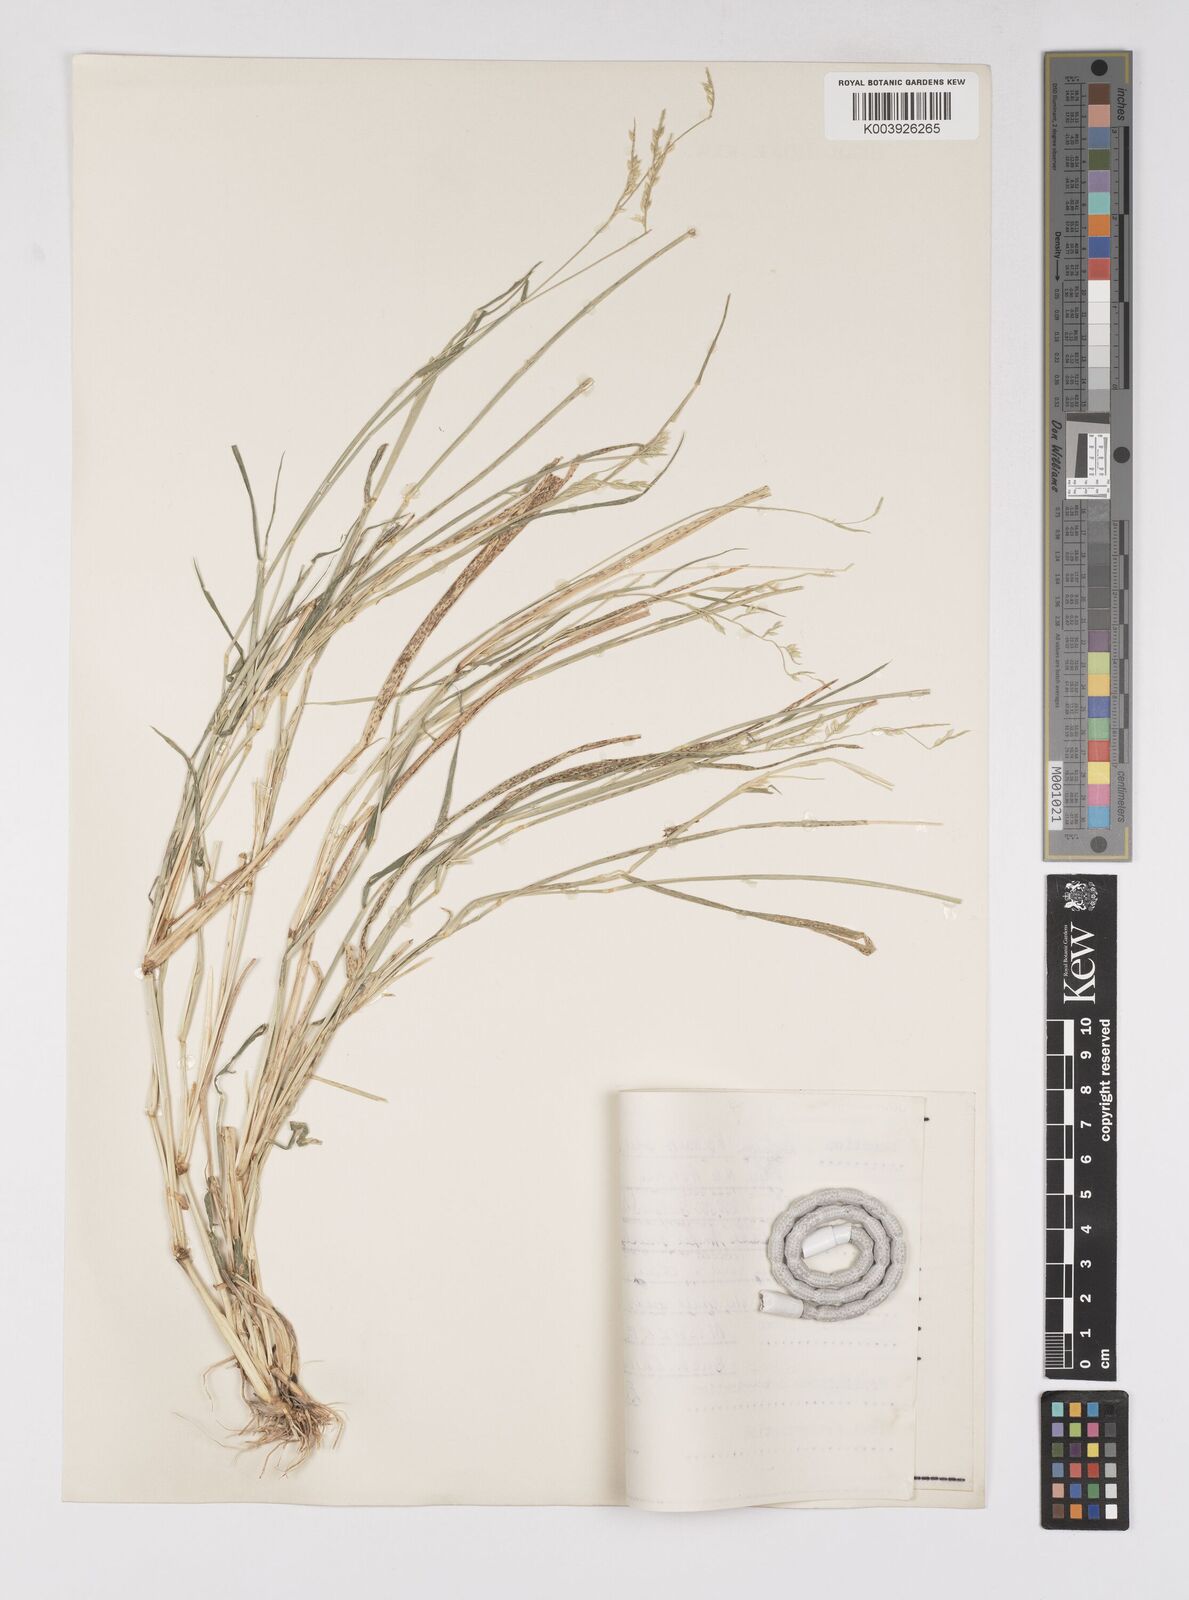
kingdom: Plantae
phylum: Tracheophyta
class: Liliopsida
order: Poales
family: Poaceae
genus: Eriochloa
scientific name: Eriochloa barbatus
